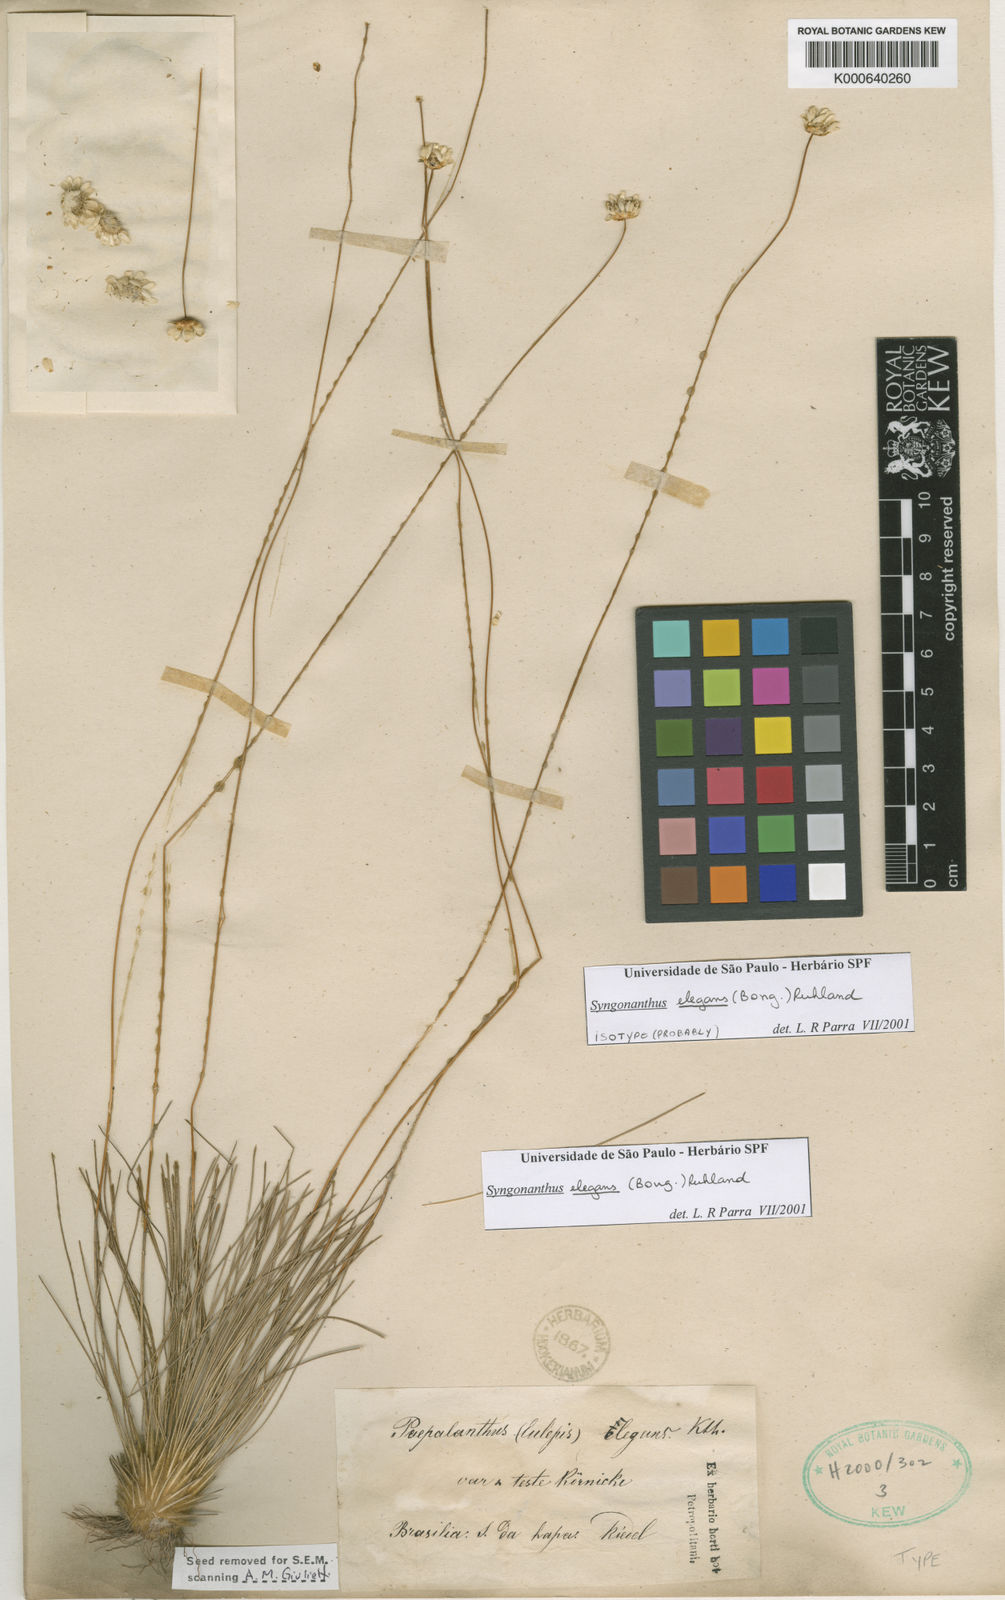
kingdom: Plantae
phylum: Tracheophyta
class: Liliopsida
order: Poales
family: Eriocaulaceae
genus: Comanthera
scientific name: Comanthera elegans
